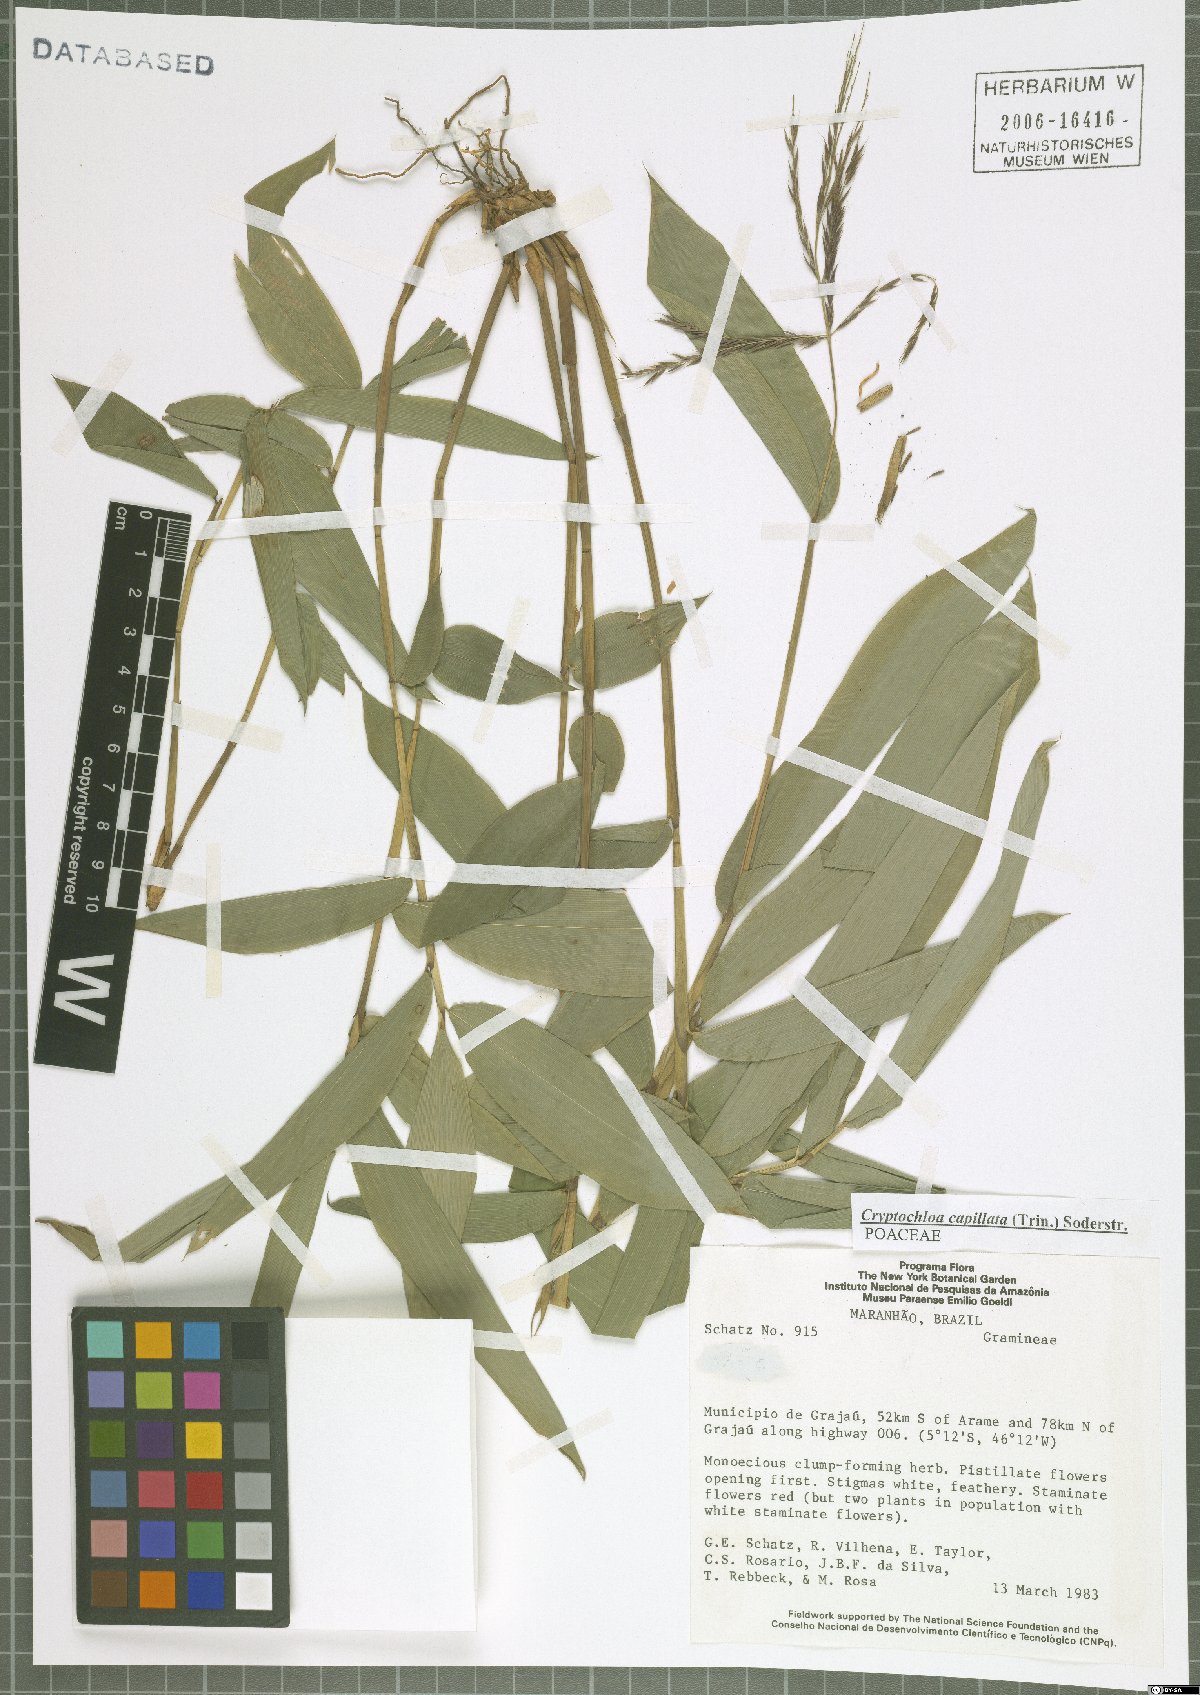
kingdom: Plantae
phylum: Tracheophyta
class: Liliopsida
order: Poales
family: Poaceae
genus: Cryptochloa
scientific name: Cryptochloa capillata
